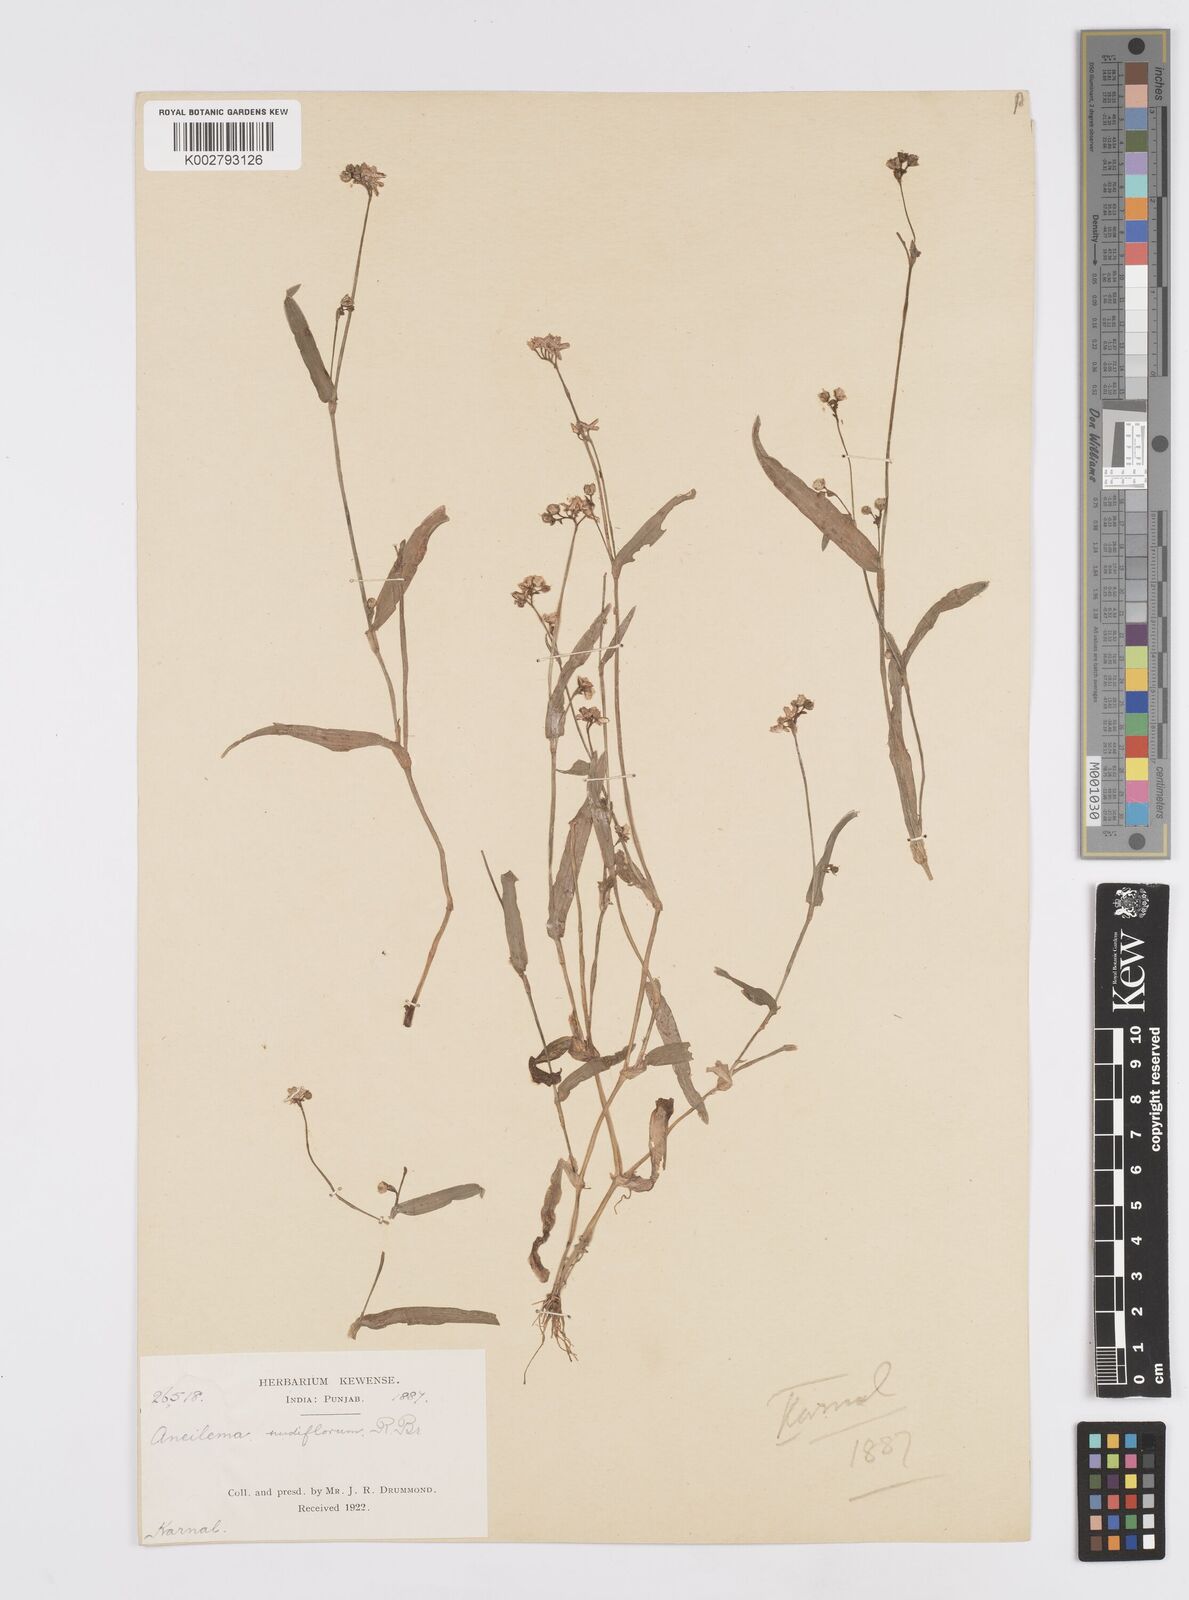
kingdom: Plantae
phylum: Tracheophyta
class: Liliopsida
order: Commelinales
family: Commelinaceae
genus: Murdannia
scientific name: Murdannia nudiflora
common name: Nakedstem dewflower
